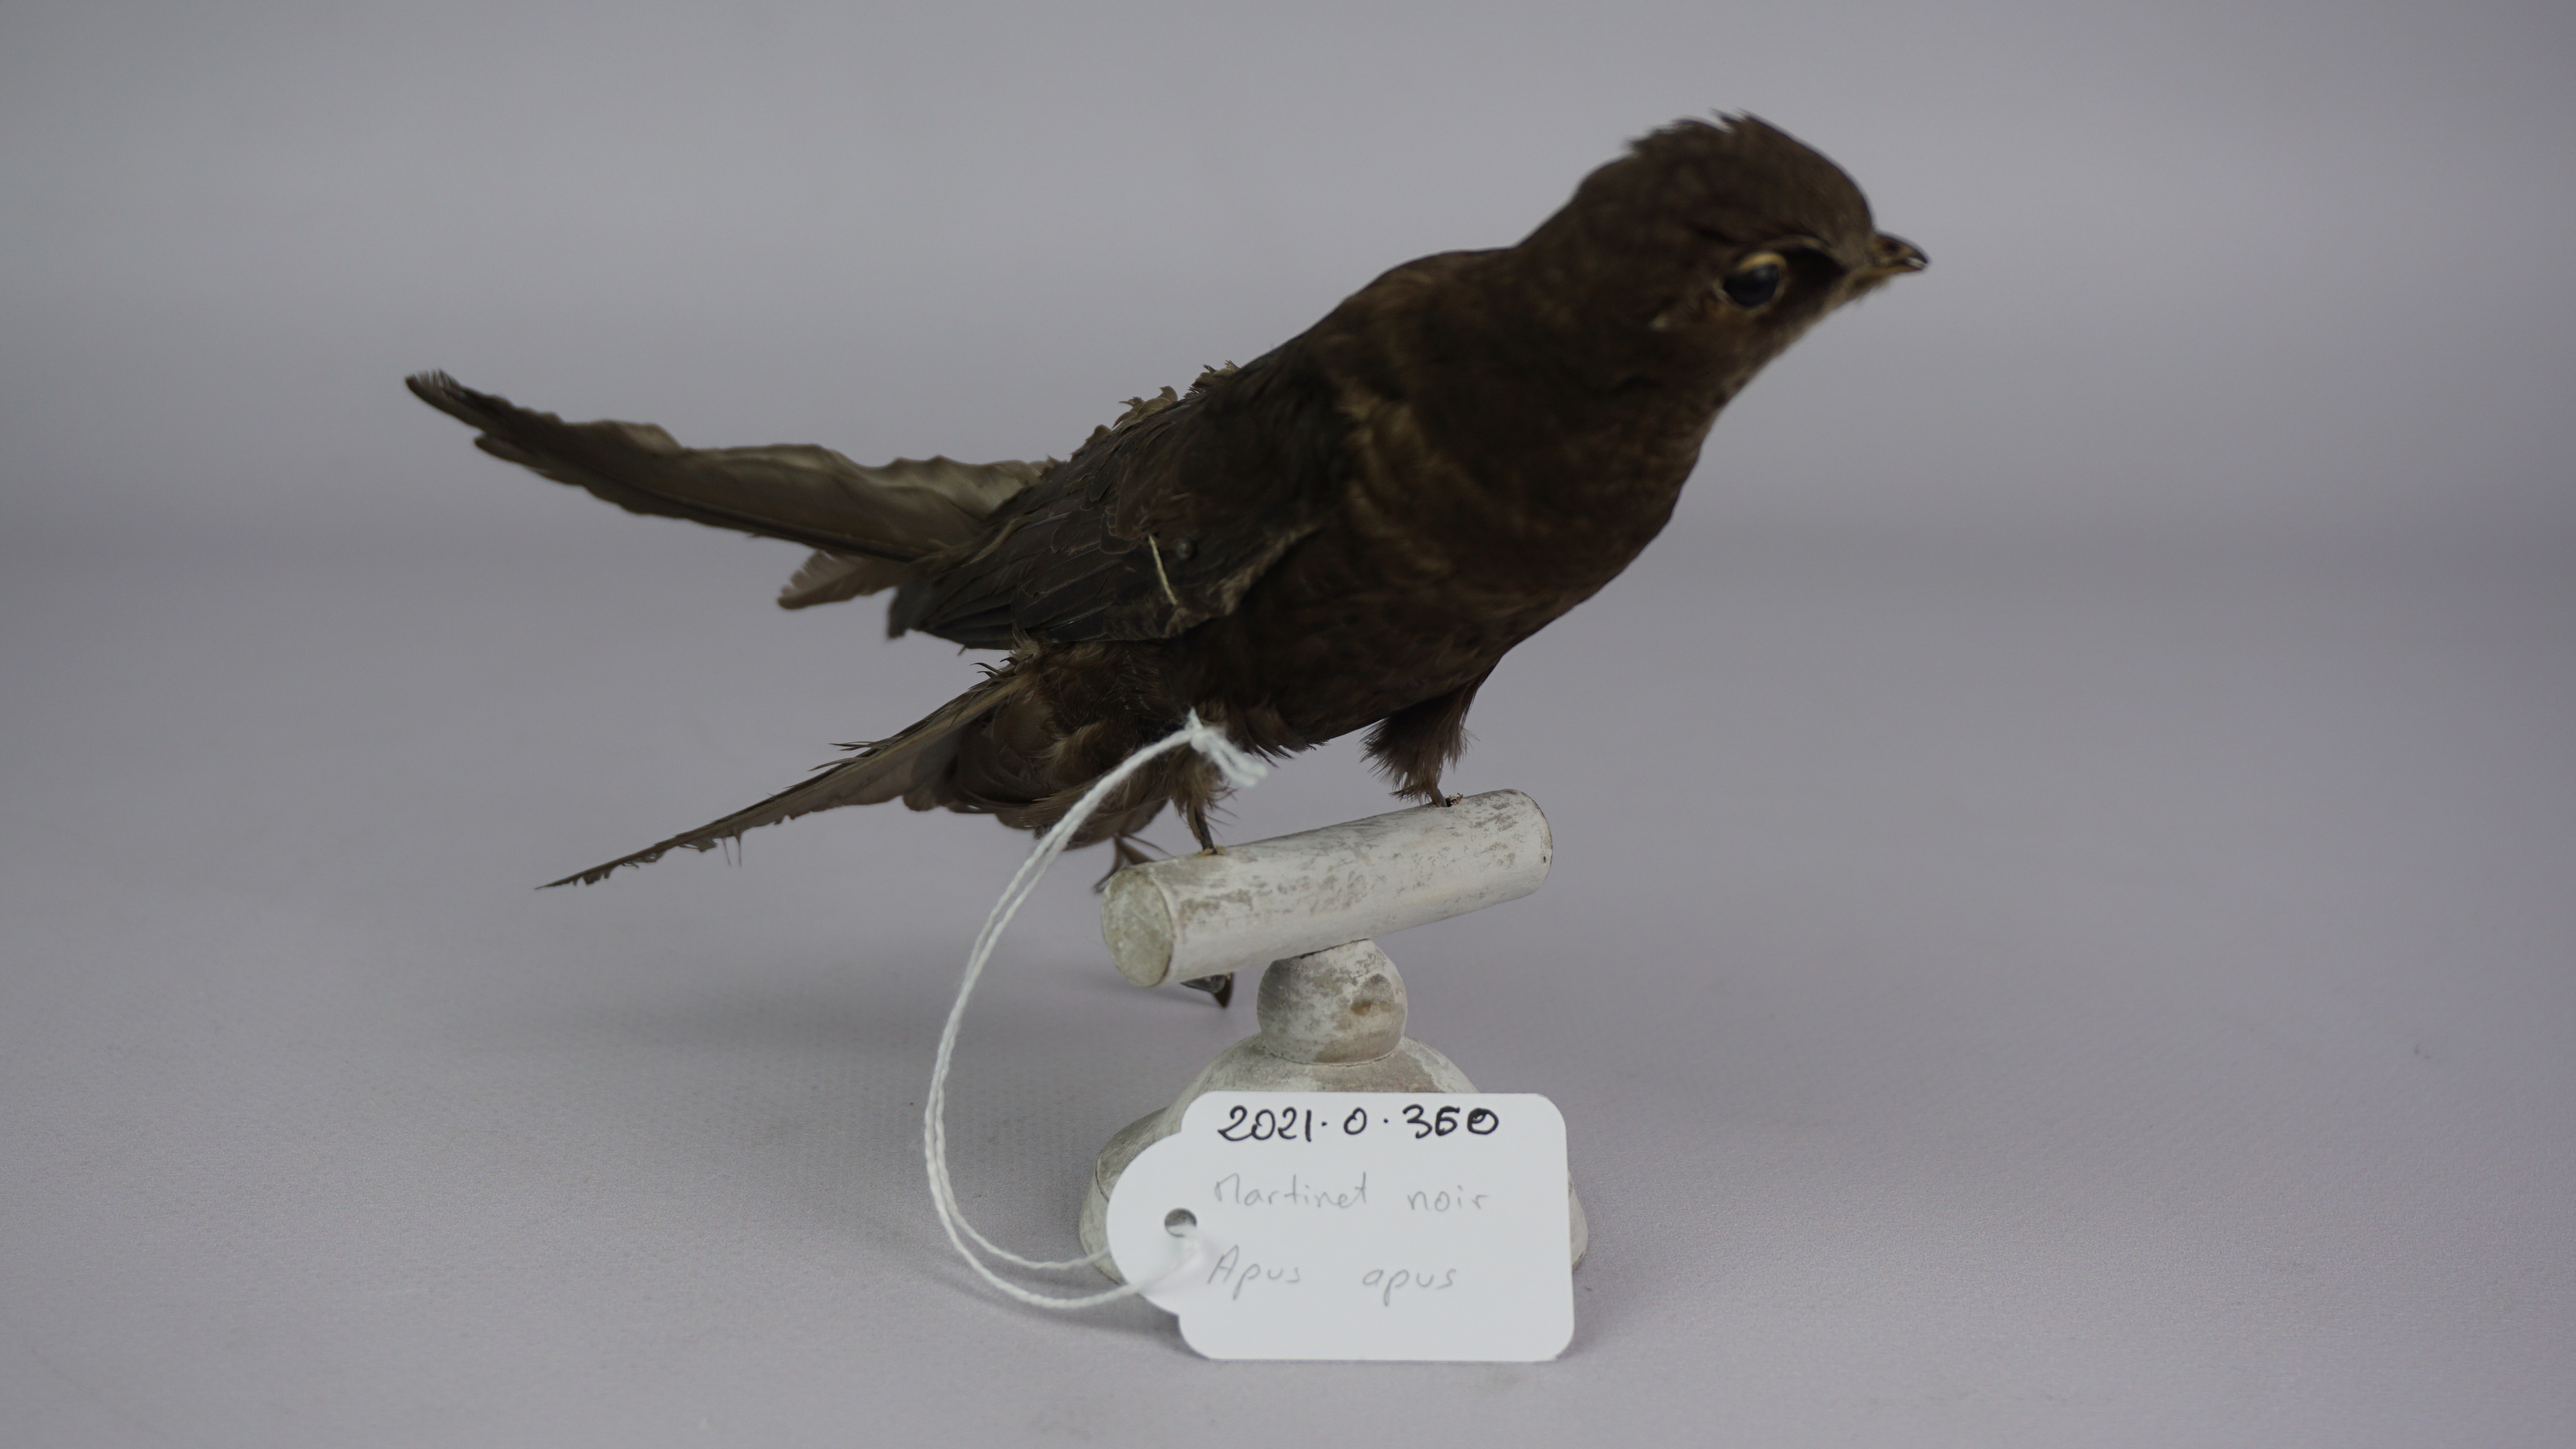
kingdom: Animalia
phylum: Chordata
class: Aves
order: Apodiformes
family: Apodidae
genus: Apus
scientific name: Apus apus
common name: Common swift
